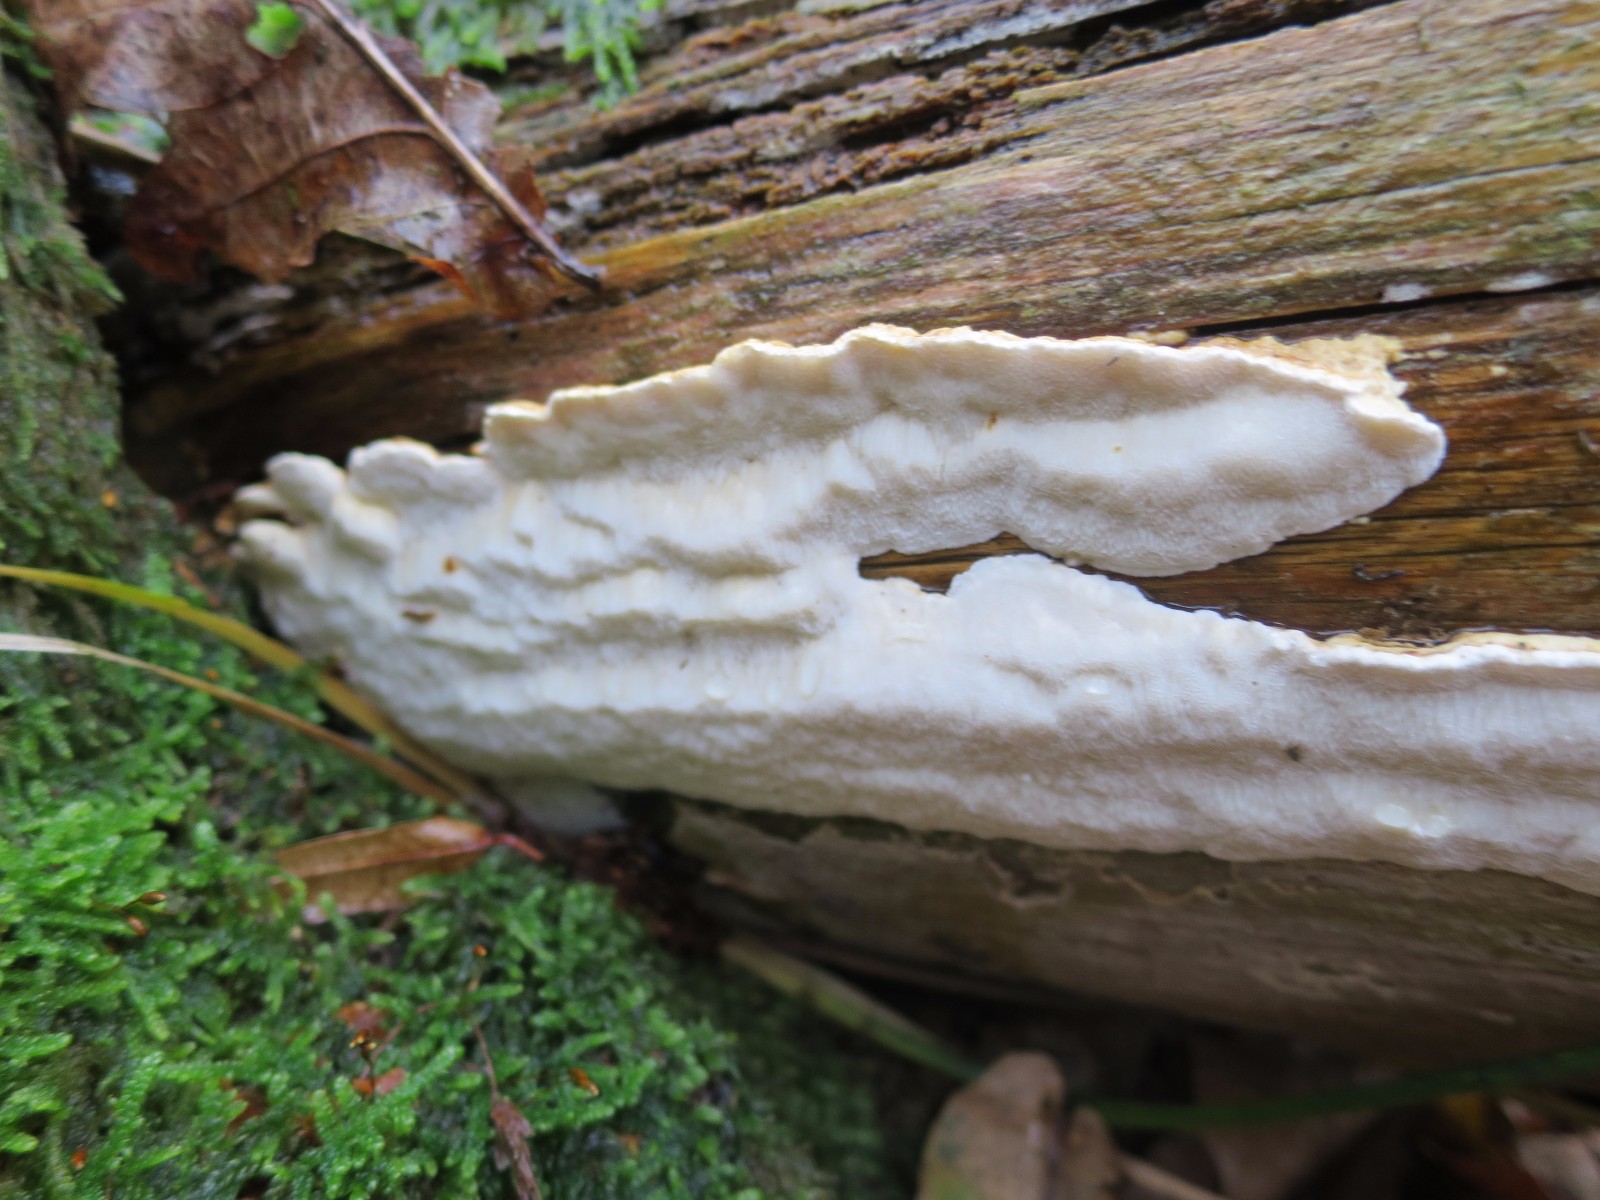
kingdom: Fungi
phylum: Basidiomycota
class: Agaricomycetes
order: Polyporales
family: Fomitopsidaceae
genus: Neoantrodia
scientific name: Neoantrodia serialis
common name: række-sejporesvamp
